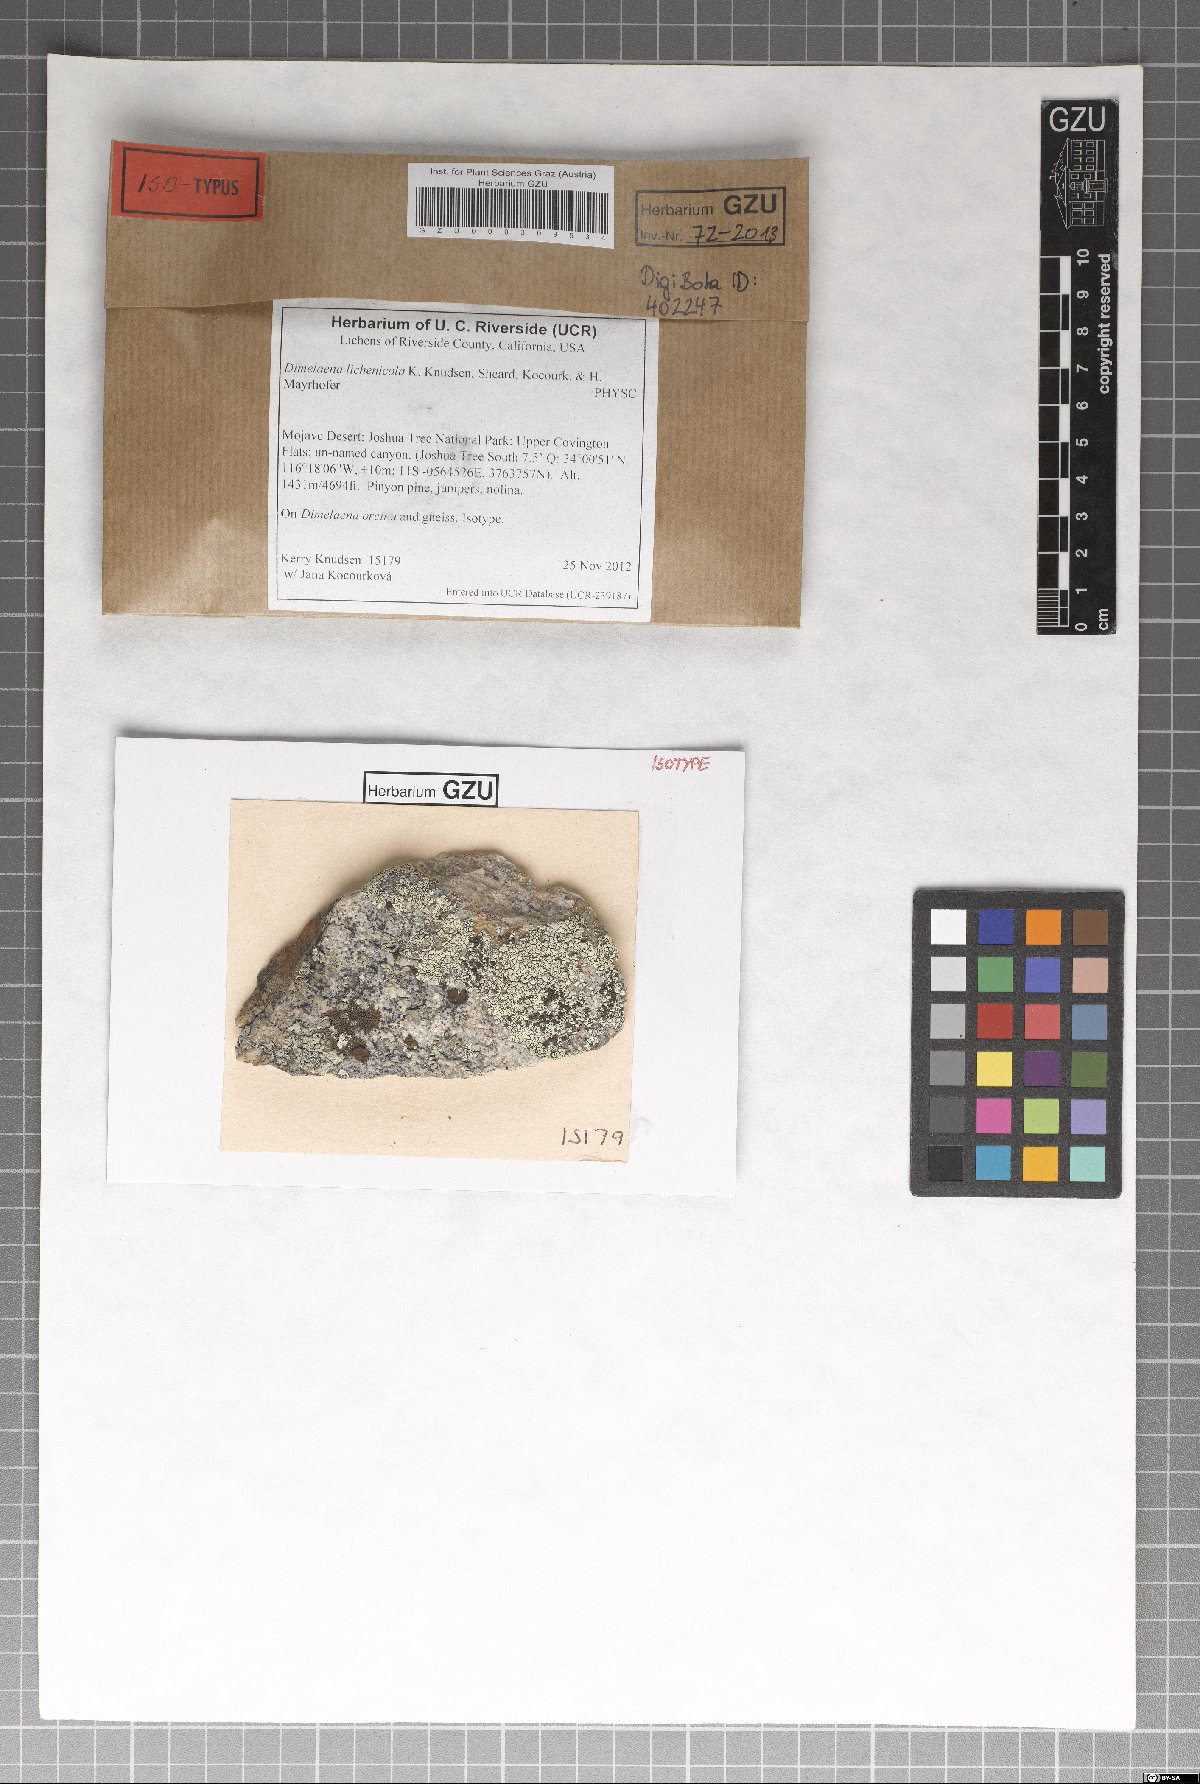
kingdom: Fungi
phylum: Ascomycota
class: Lecanoromycetes
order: Caliciales
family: Caliciaceae
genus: Dimelaena
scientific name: Dimelaena lichenicola
